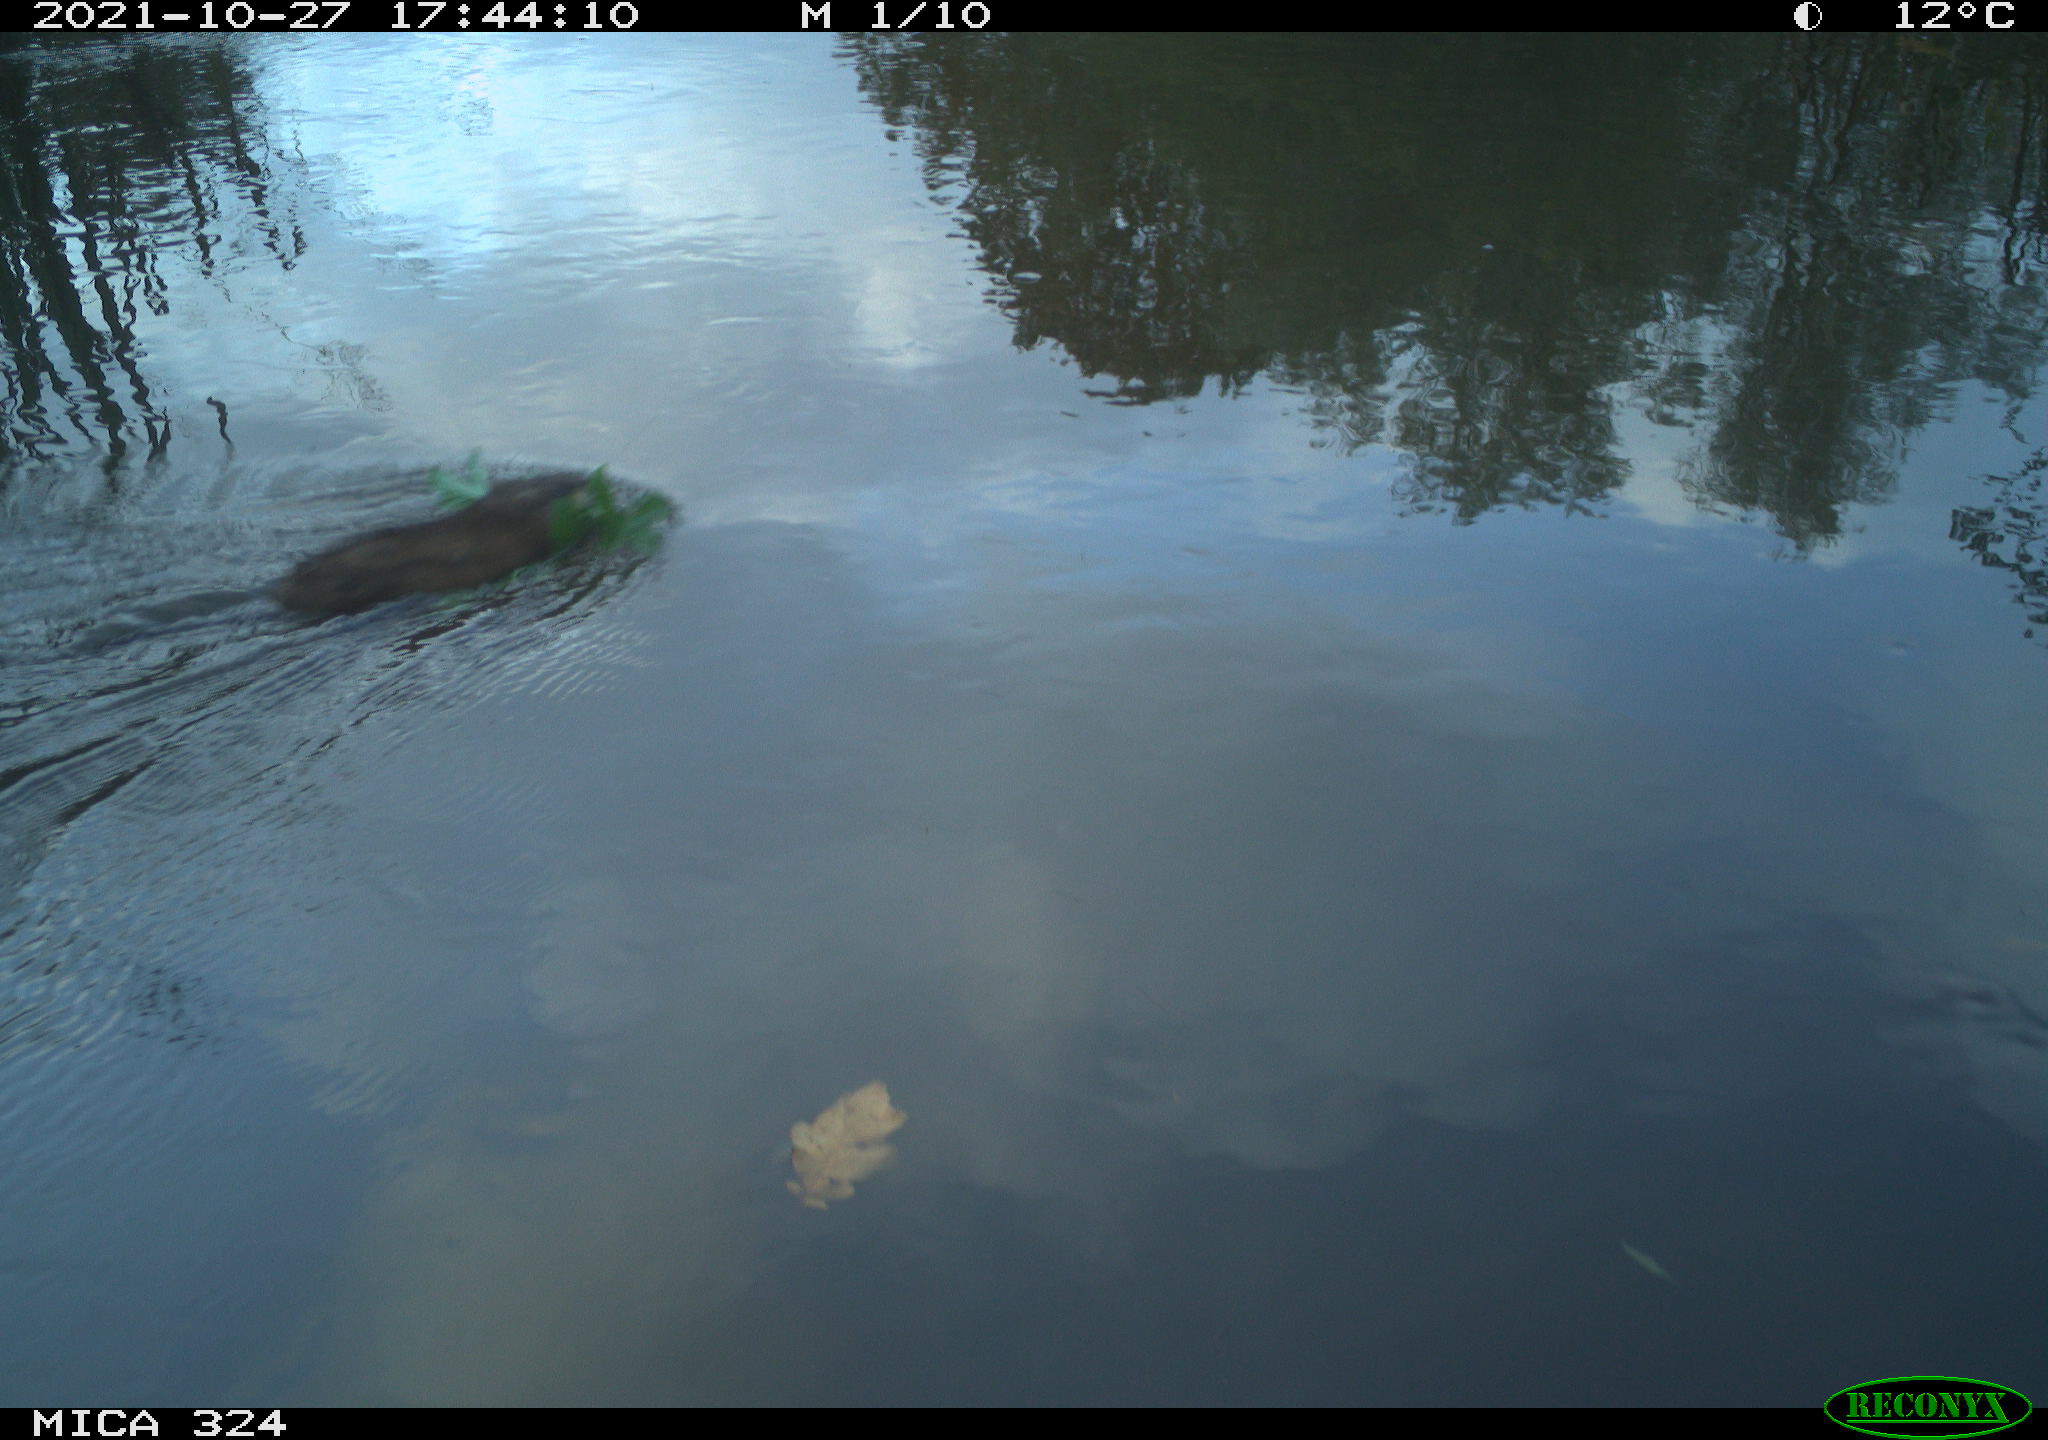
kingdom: Animalia
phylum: Chordata
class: Mammalia
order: Rodentia
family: Cricetidae
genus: Ondatra
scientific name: Ondatra zibethicus
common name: Muskrat
